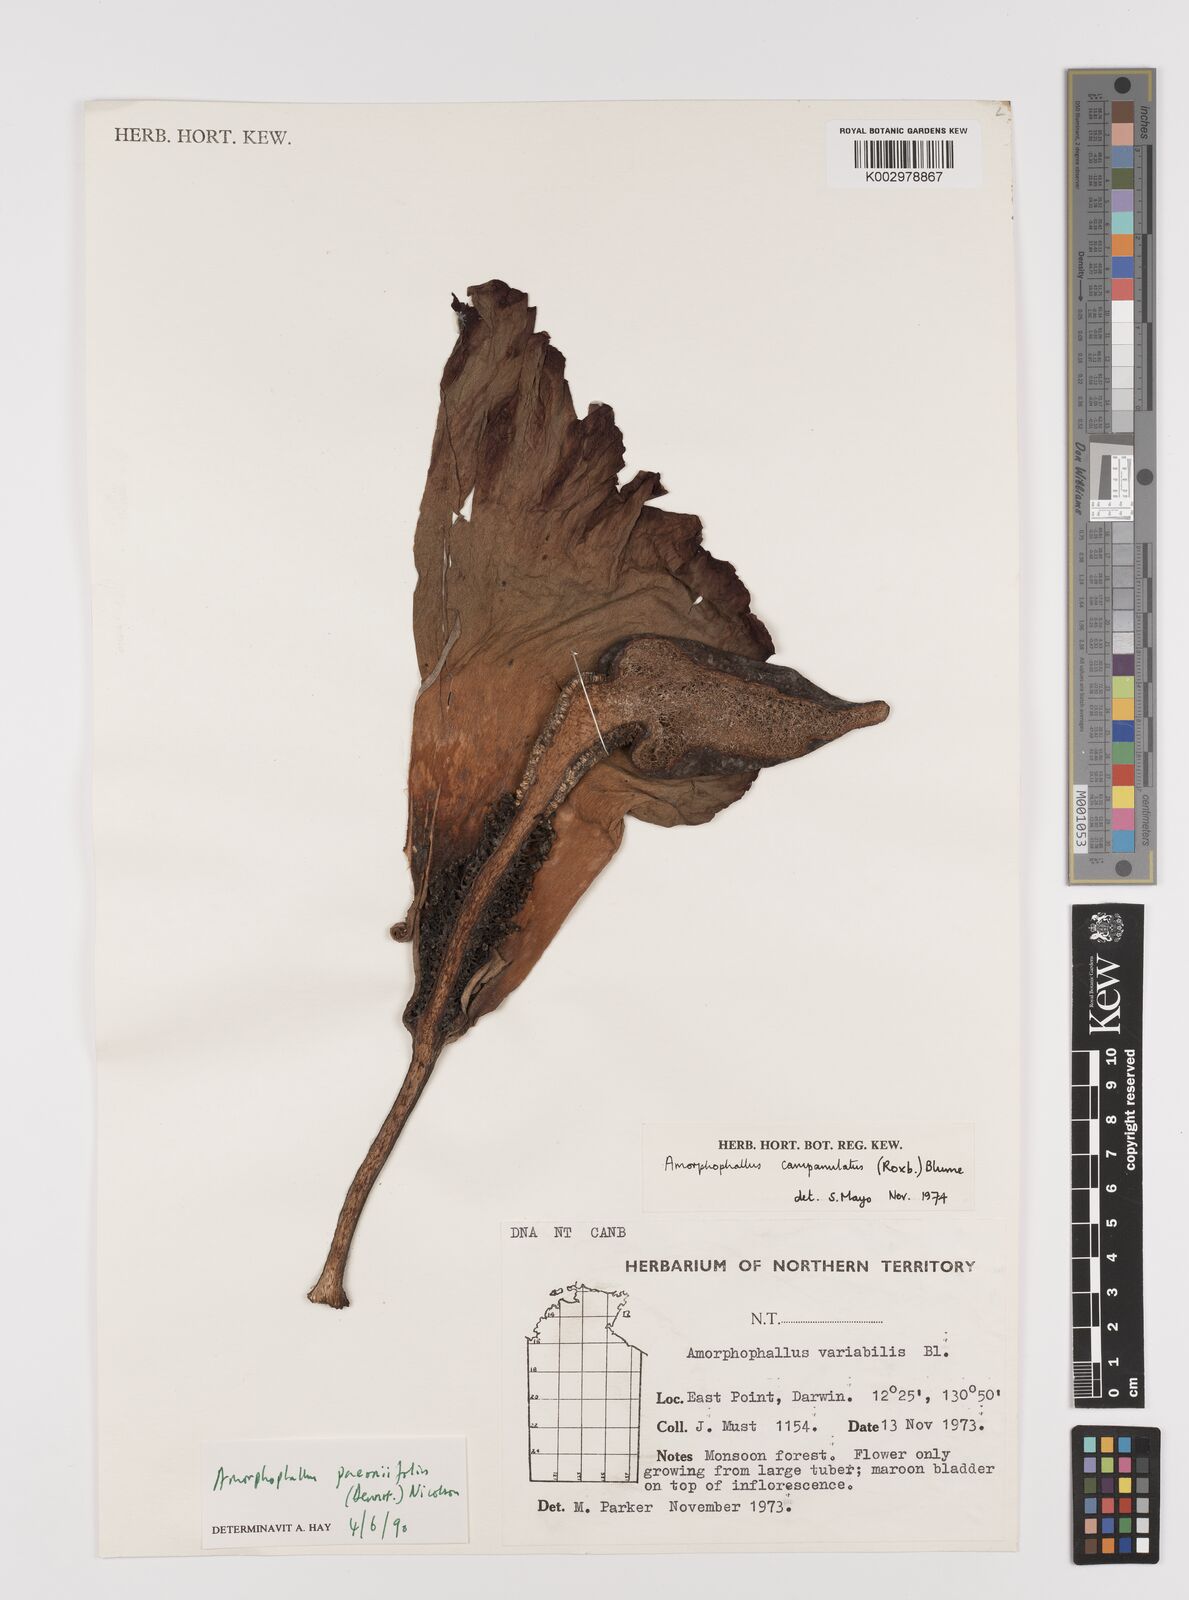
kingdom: Plantae
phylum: Tracheophyta
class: Liliopsida
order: Alismatales
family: Araceae
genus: Amorphophallus
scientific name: Amorphophallus paeoniifolius
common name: Telinga-potato
